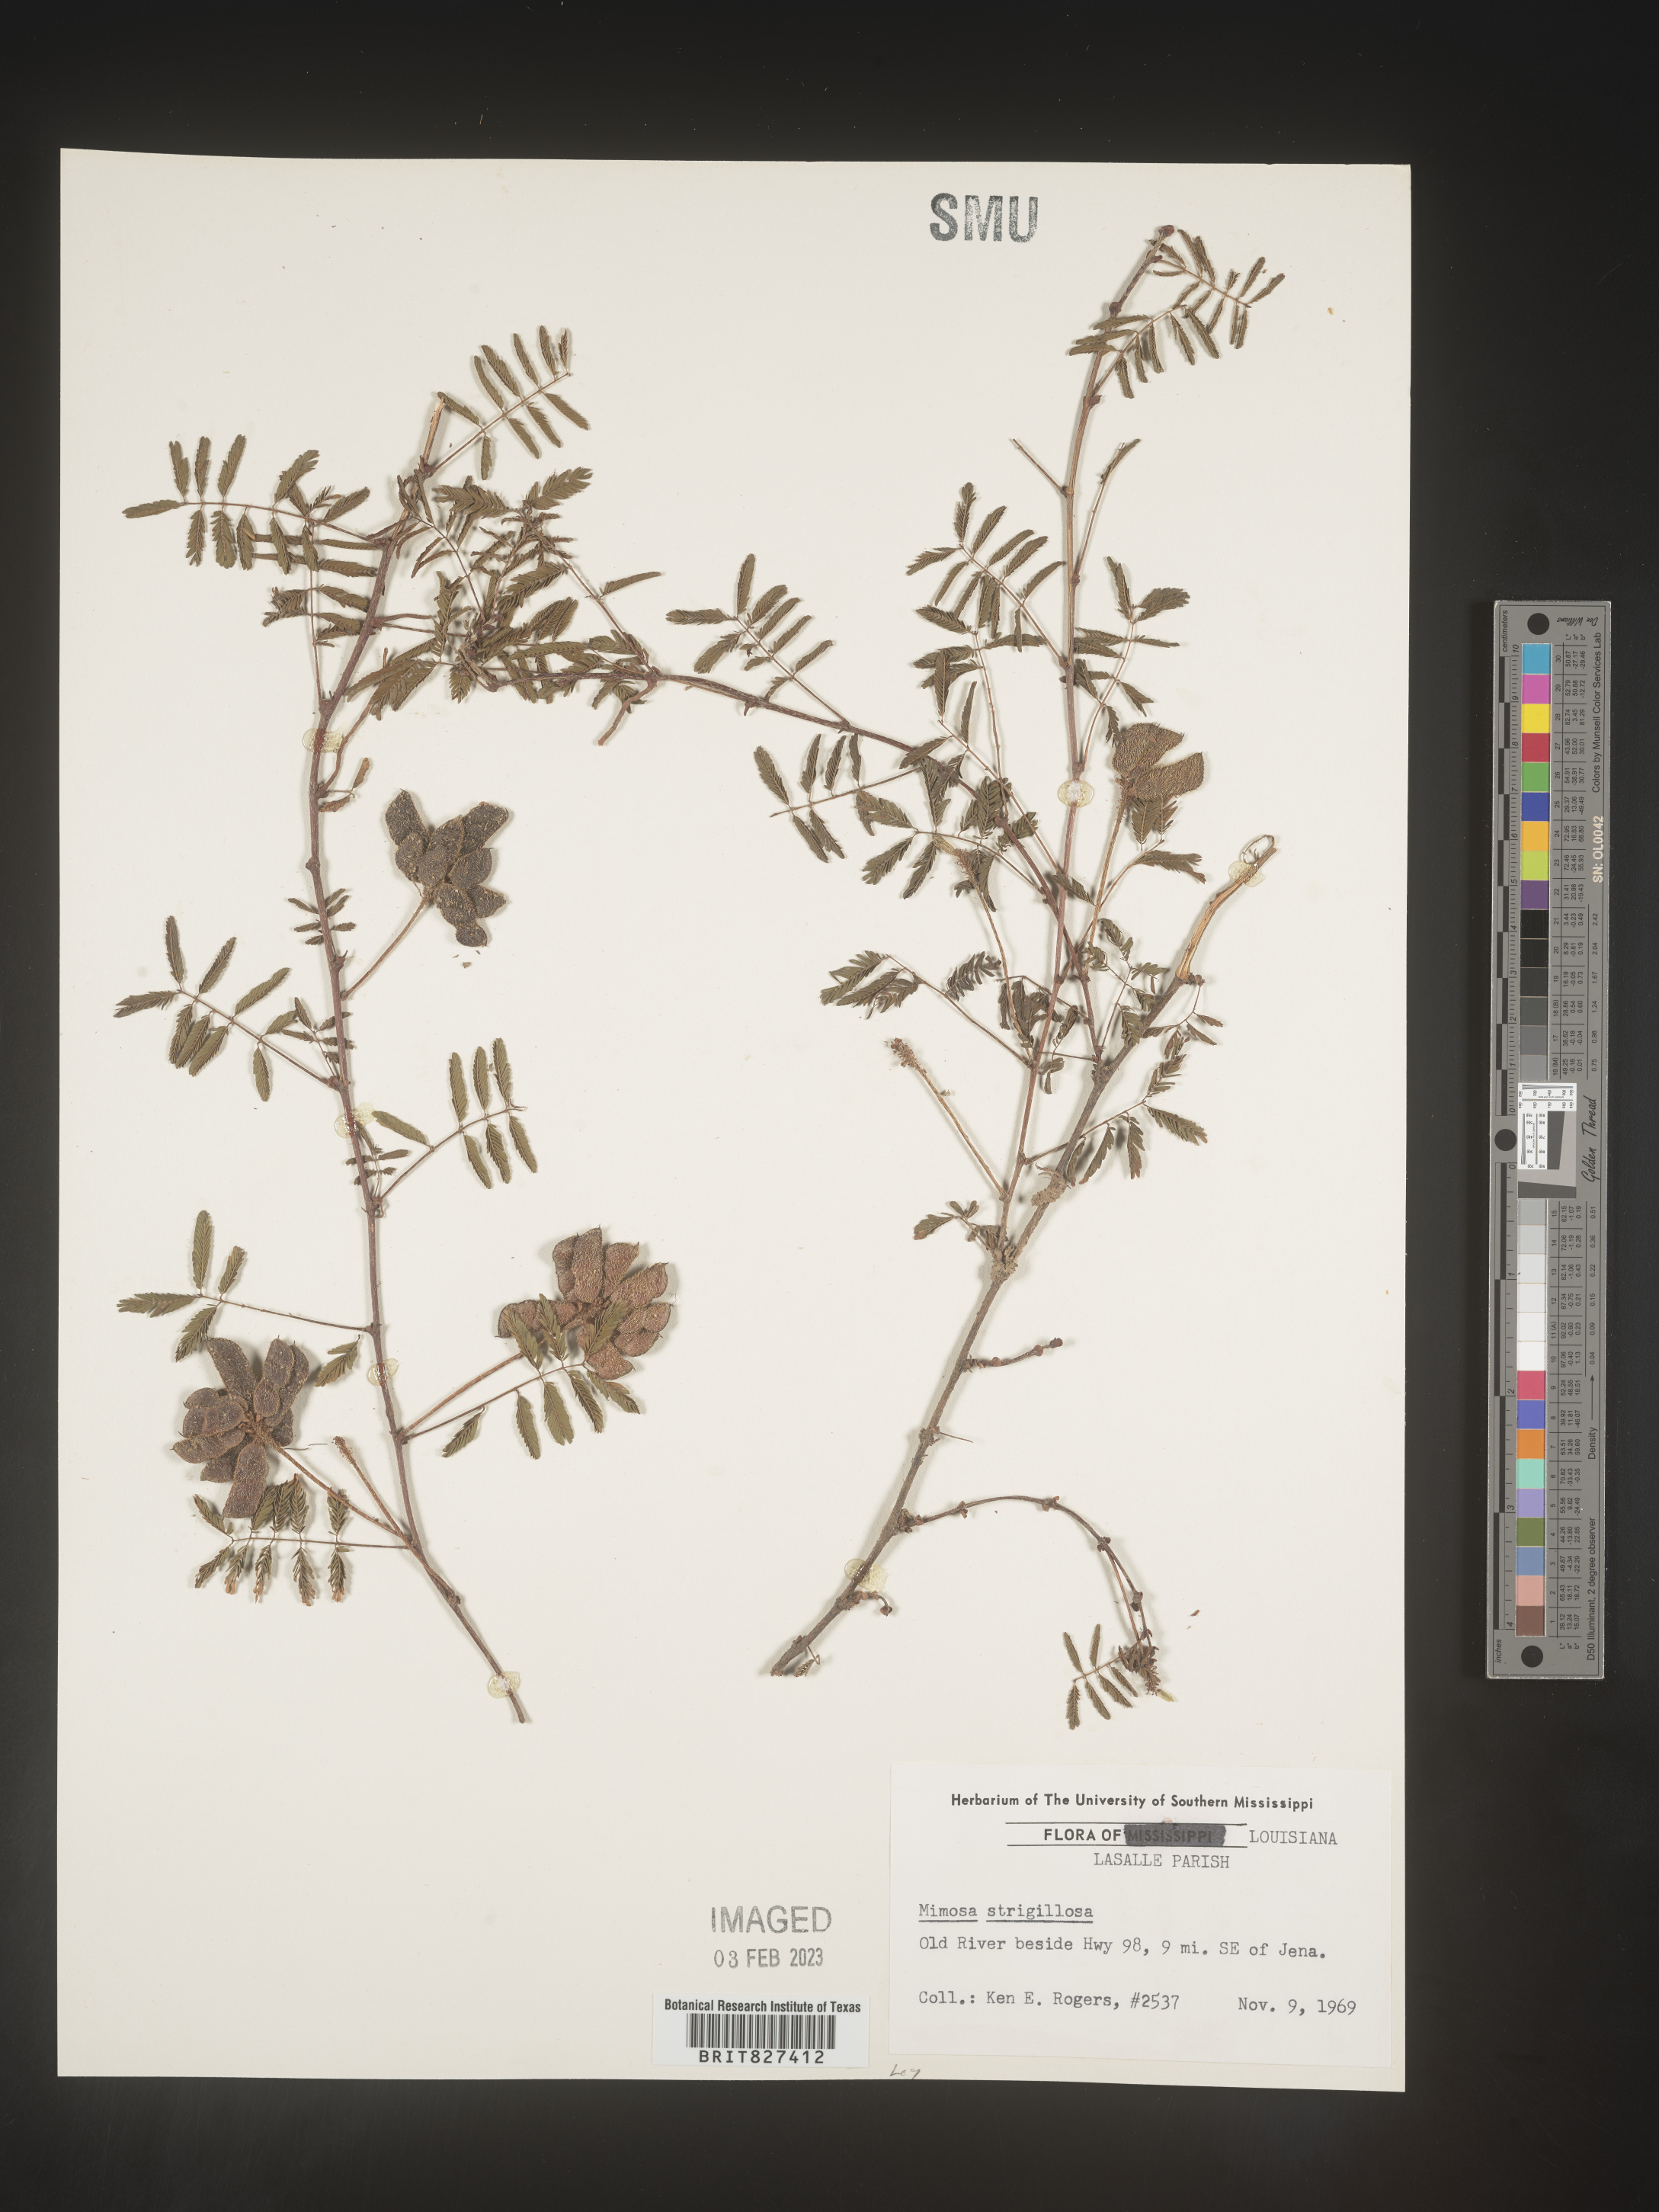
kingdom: Plantae
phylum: Tracheophyta
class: Magnoliopsida
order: Fabales
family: Fabaceae
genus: Mimosa
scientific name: Mimosa strigillosa
